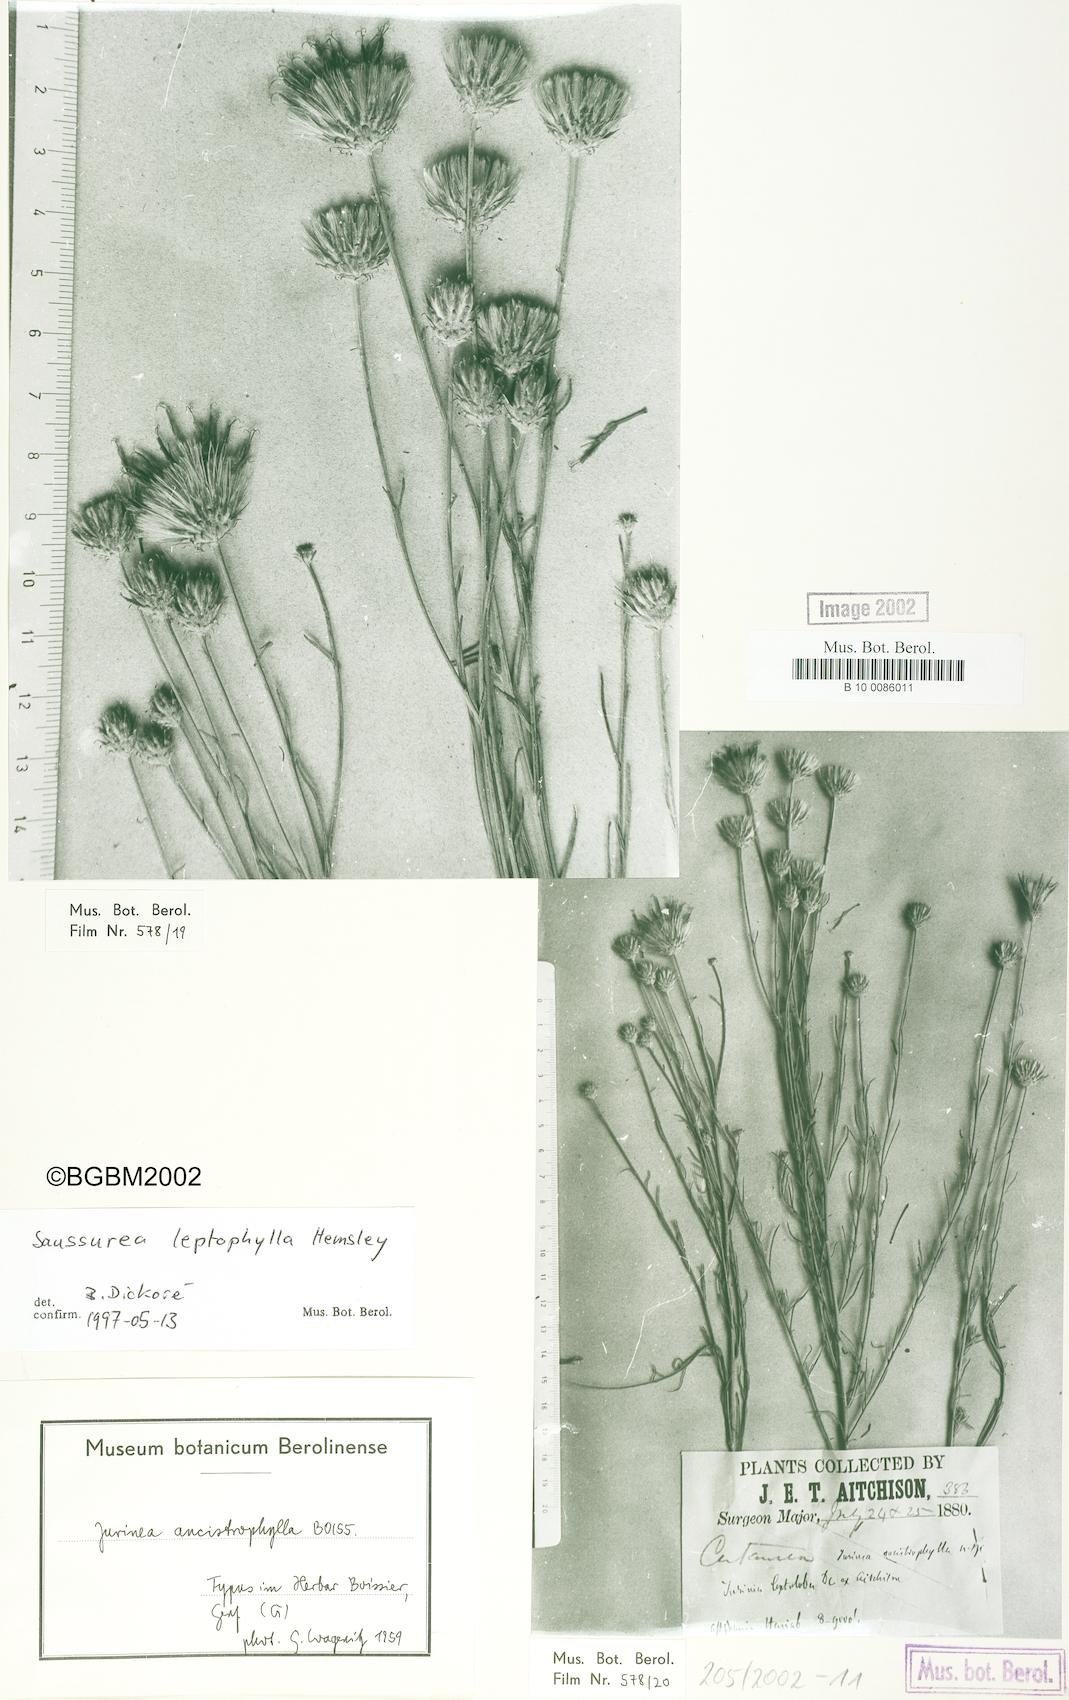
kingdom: Plantae
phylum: Tracheophyta
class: Magnoliopsida
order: Asterales
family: Asteraceae
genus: Jurinea
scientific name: Jurinea leptophylla
